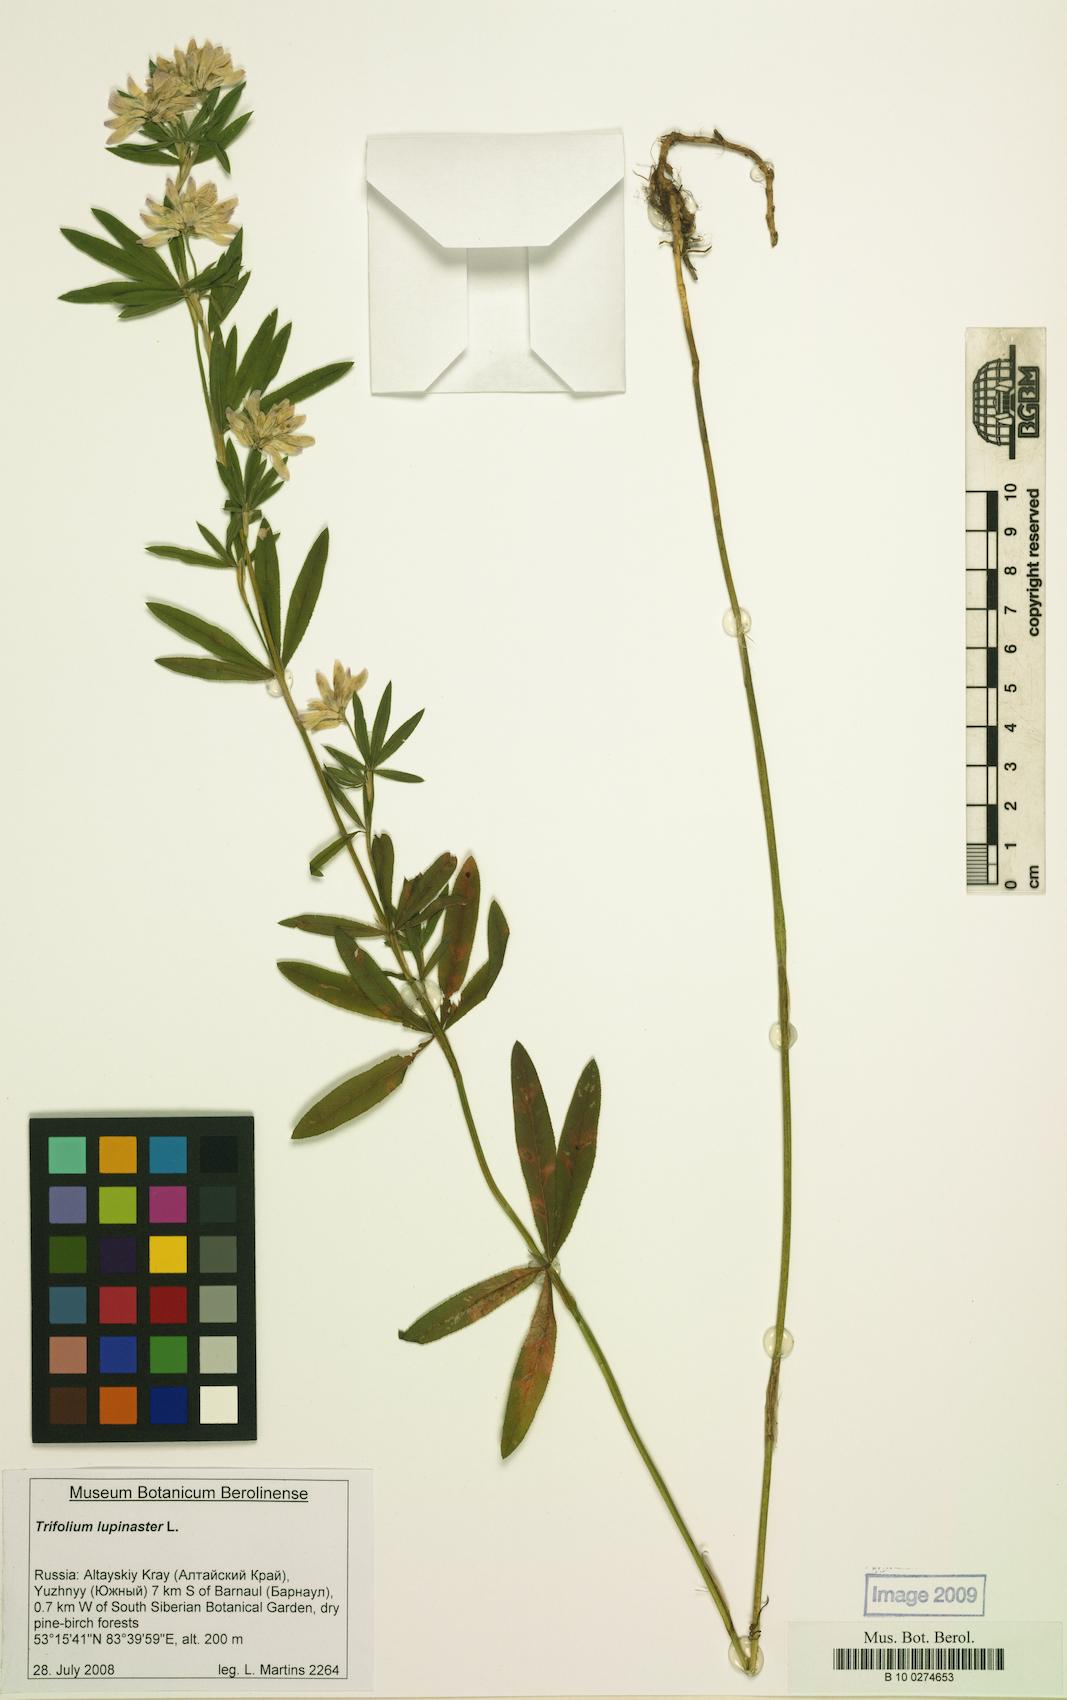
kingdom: Plantae
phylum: Tracheophyta
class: Magnoliopsida
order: Fabales
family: Fabaceae
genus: Trifolium
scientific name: Trifolium lupinaster
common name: Lupine clover
